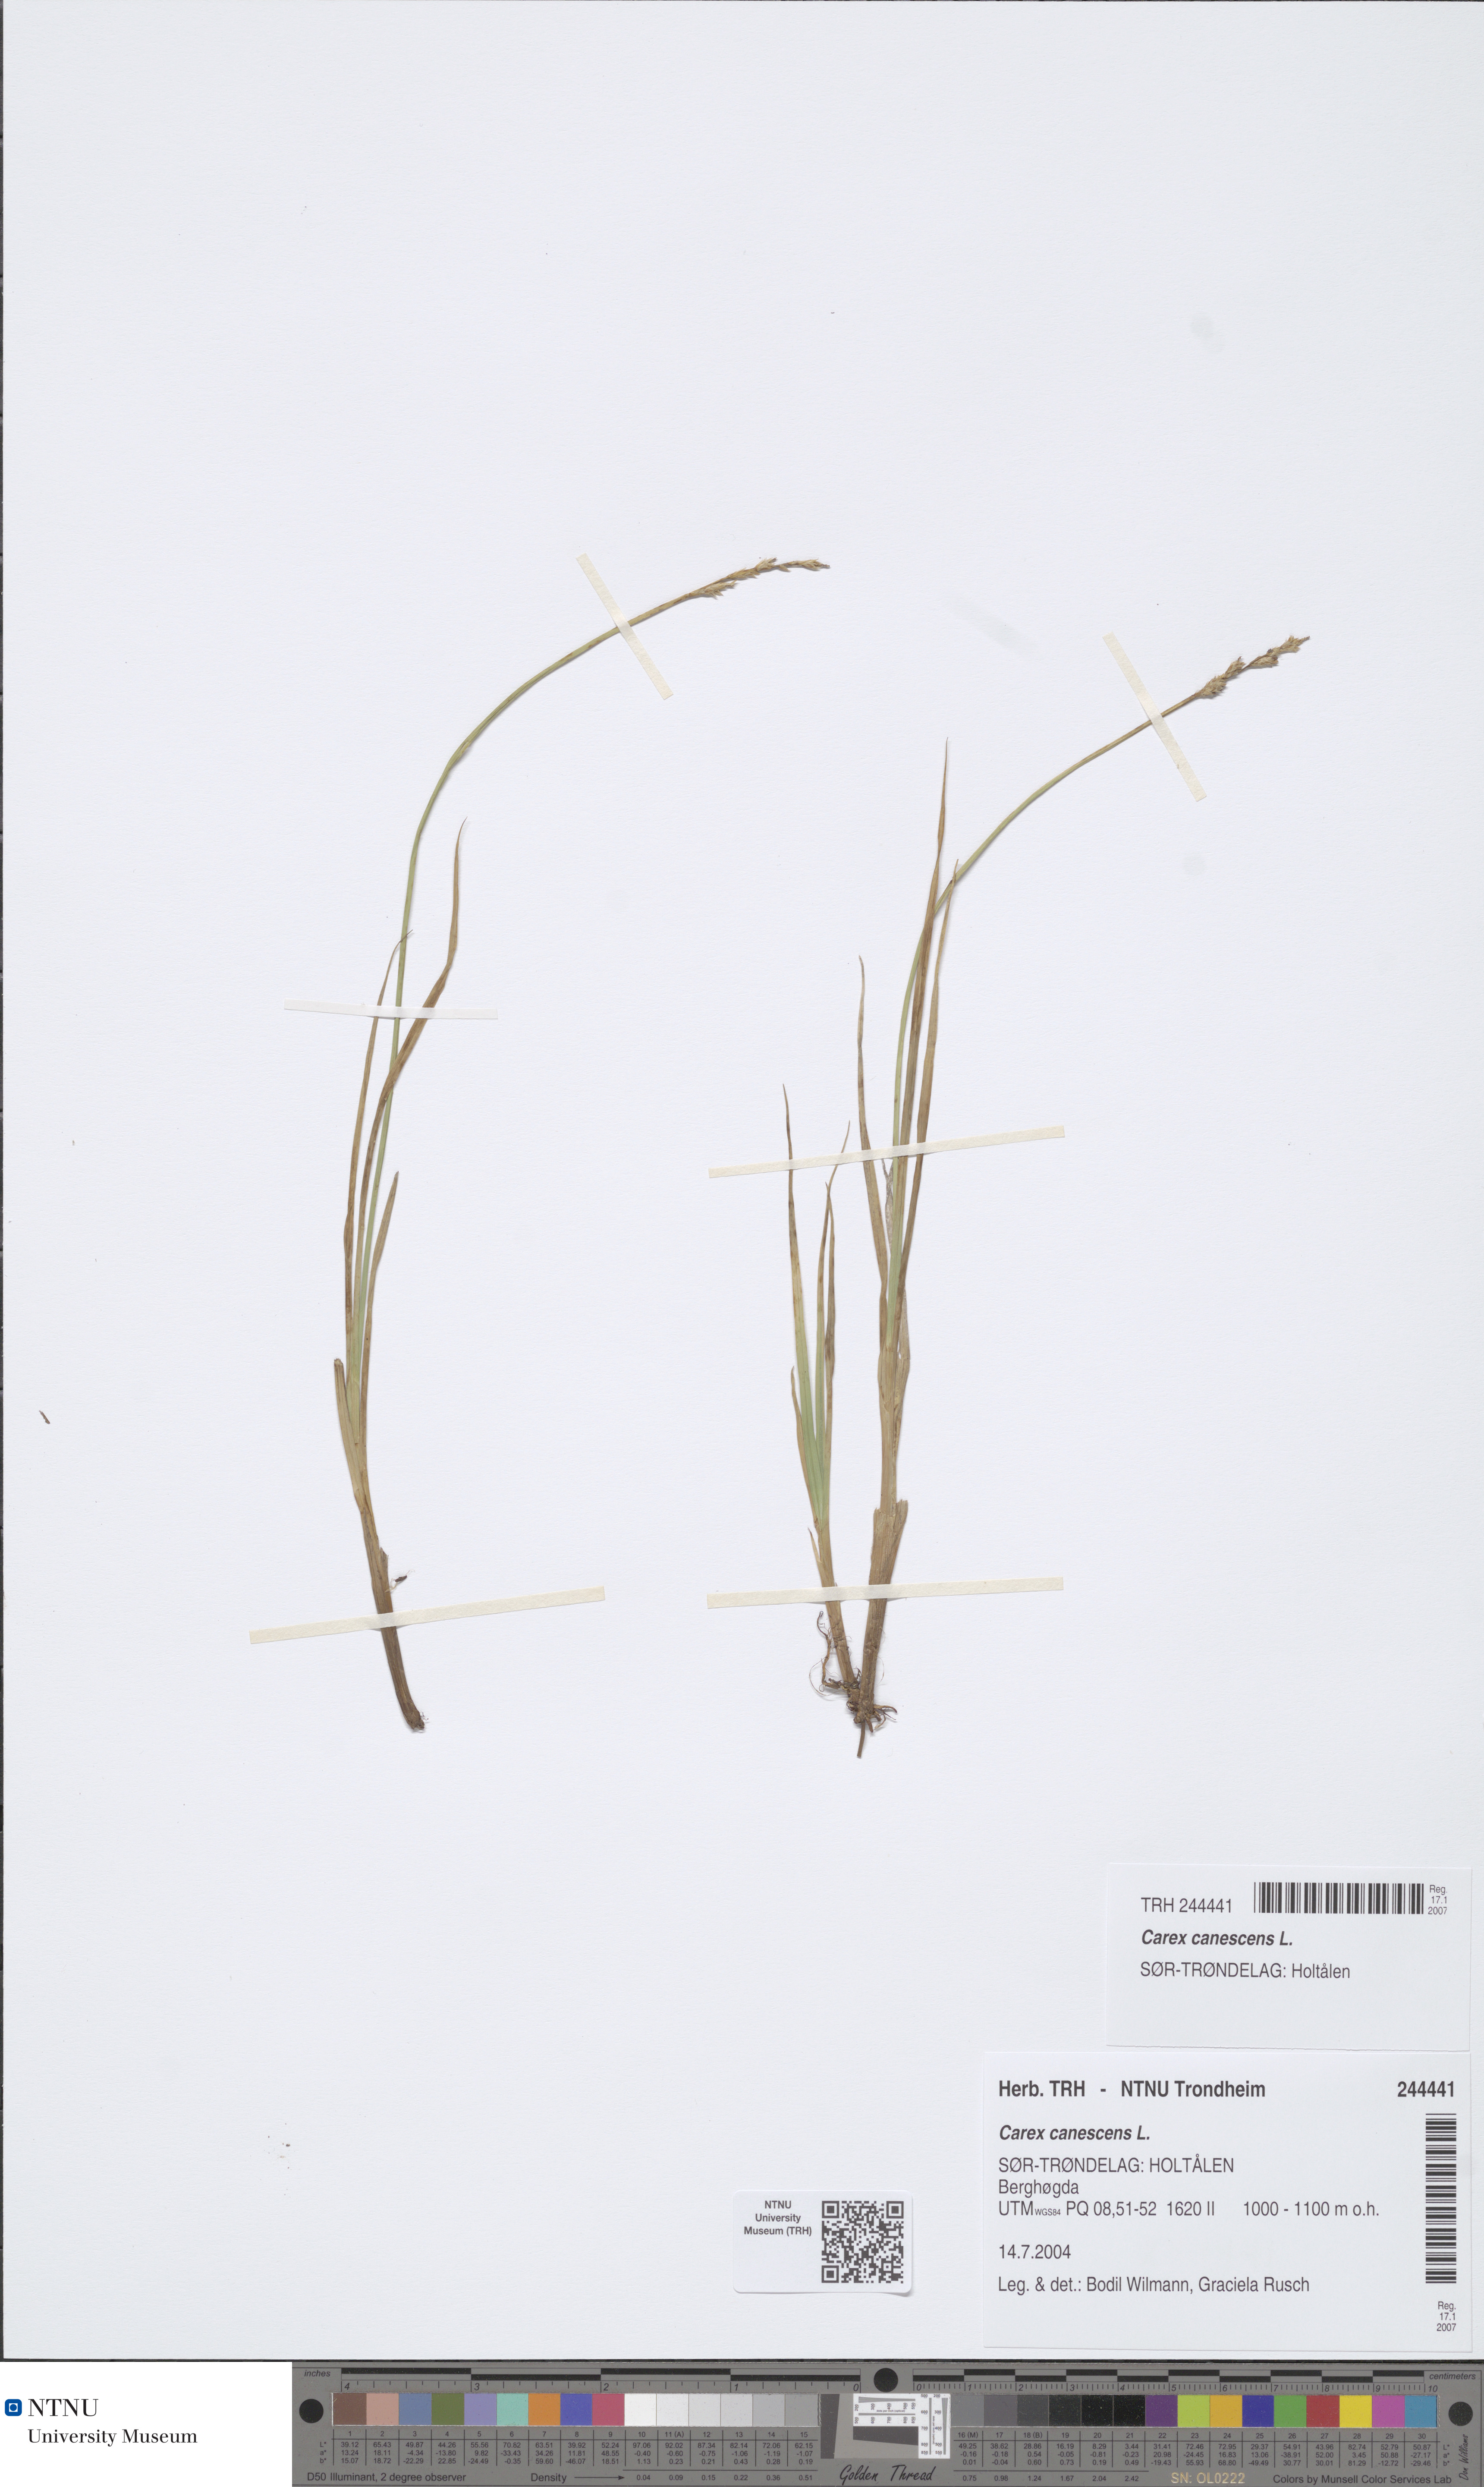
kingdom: Plantae
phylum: Tracheophyta
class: Liliopsida
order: Poales
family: Cyperaceae
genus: Carex
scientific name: Carex canescens
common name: White sedge
